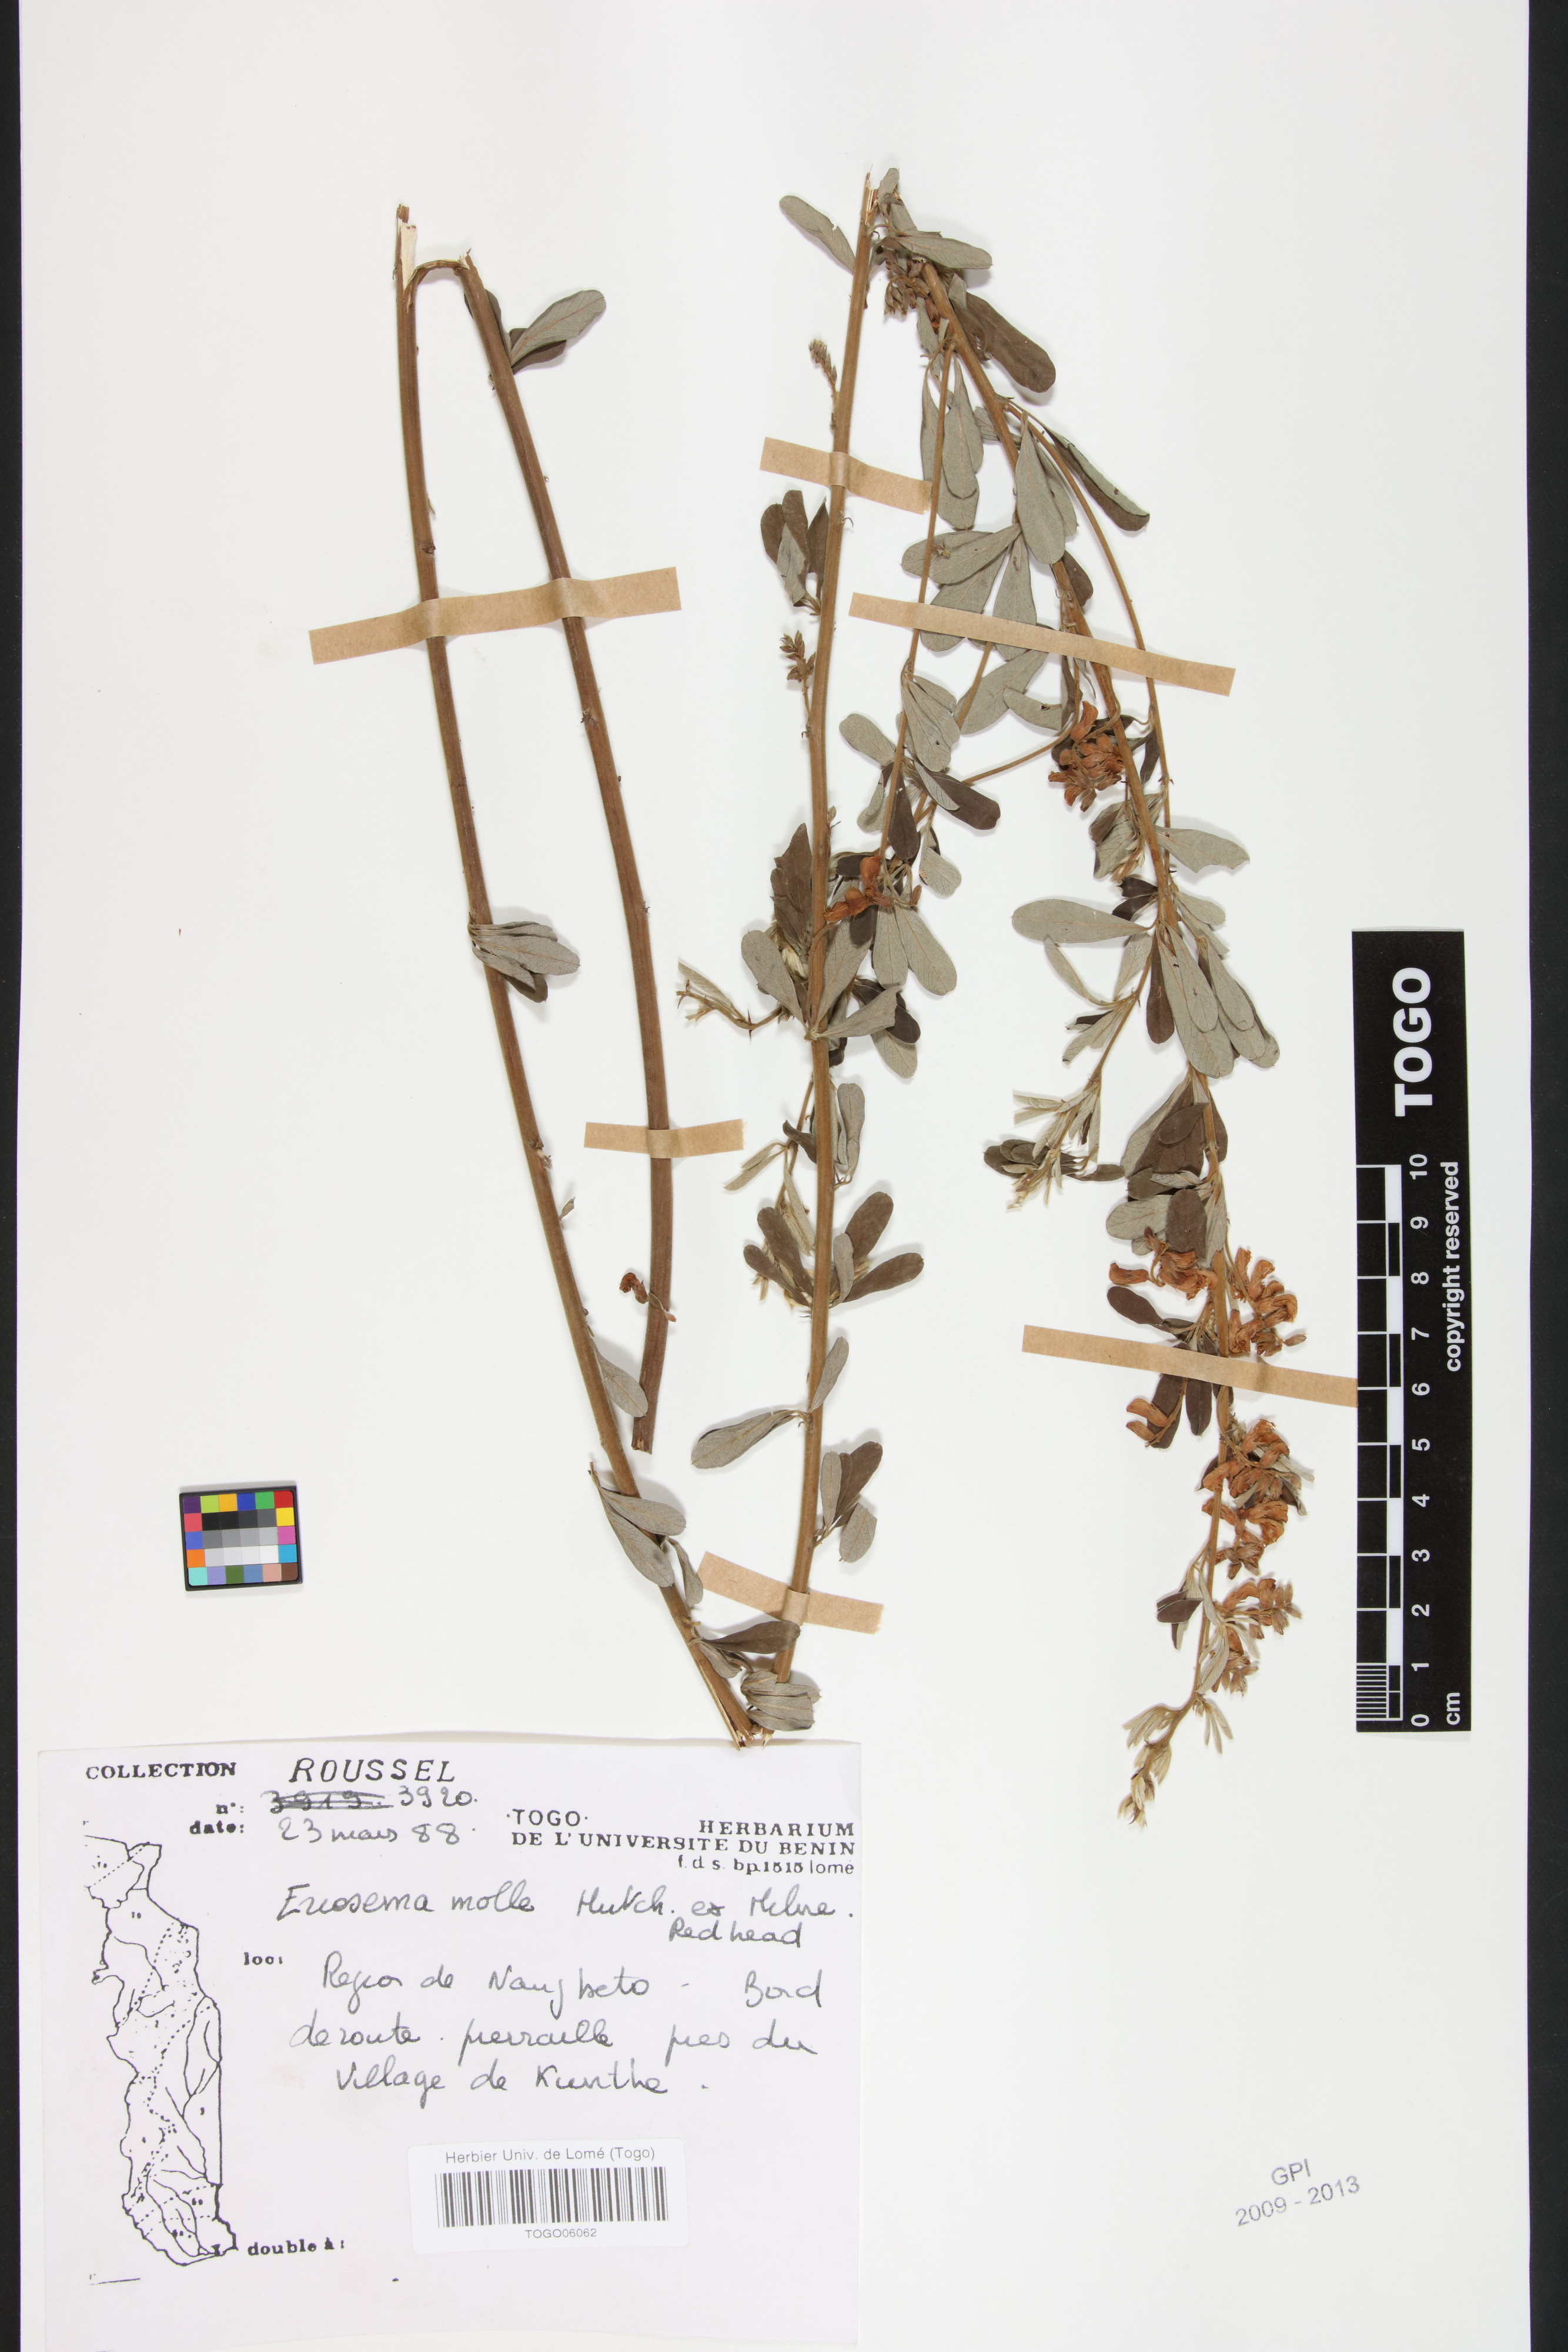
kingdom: Plantae
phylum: Tracheophyta
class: Magnoliopsida
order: Fabales
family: Fabaceae
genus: Eriosema
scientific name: Eriosema molle
